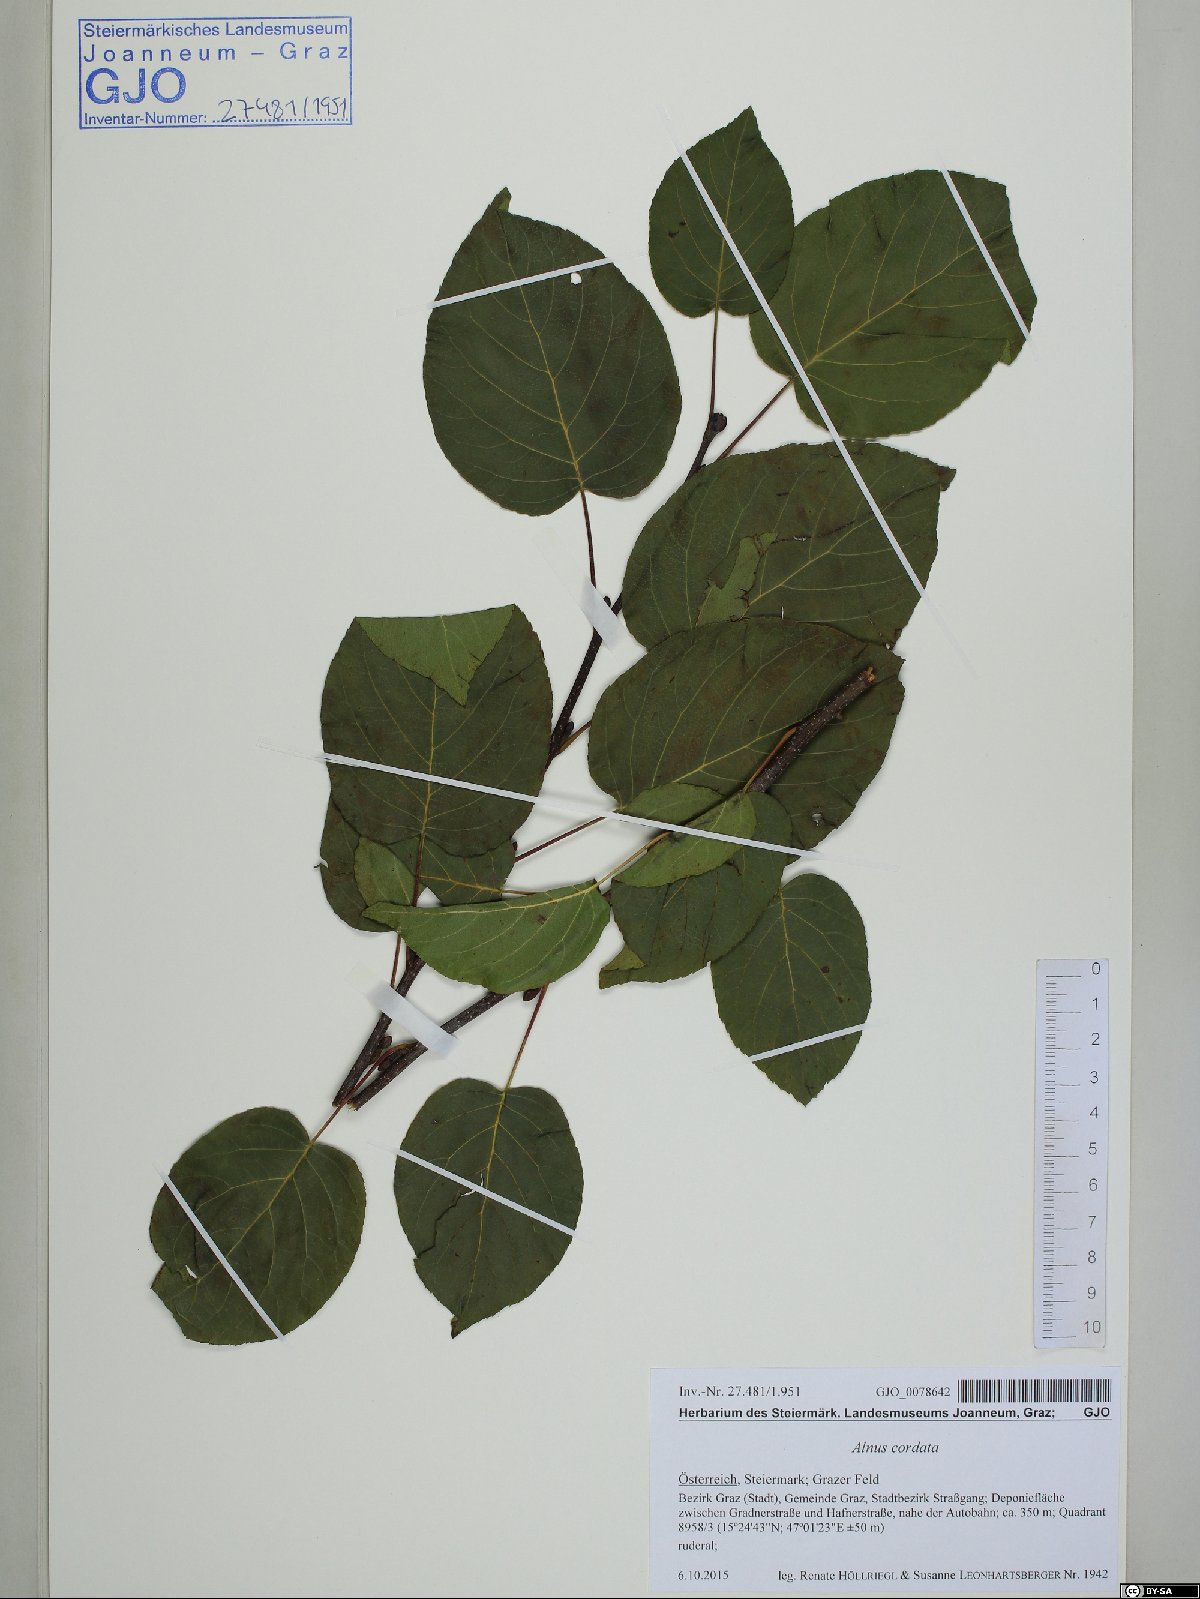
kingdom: Plantae
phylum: Tracheophyta
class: Magnoliopsida
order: Fagales
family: Betulaceae
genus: Alnus
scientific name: Alnus cordata
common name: Italian alder
